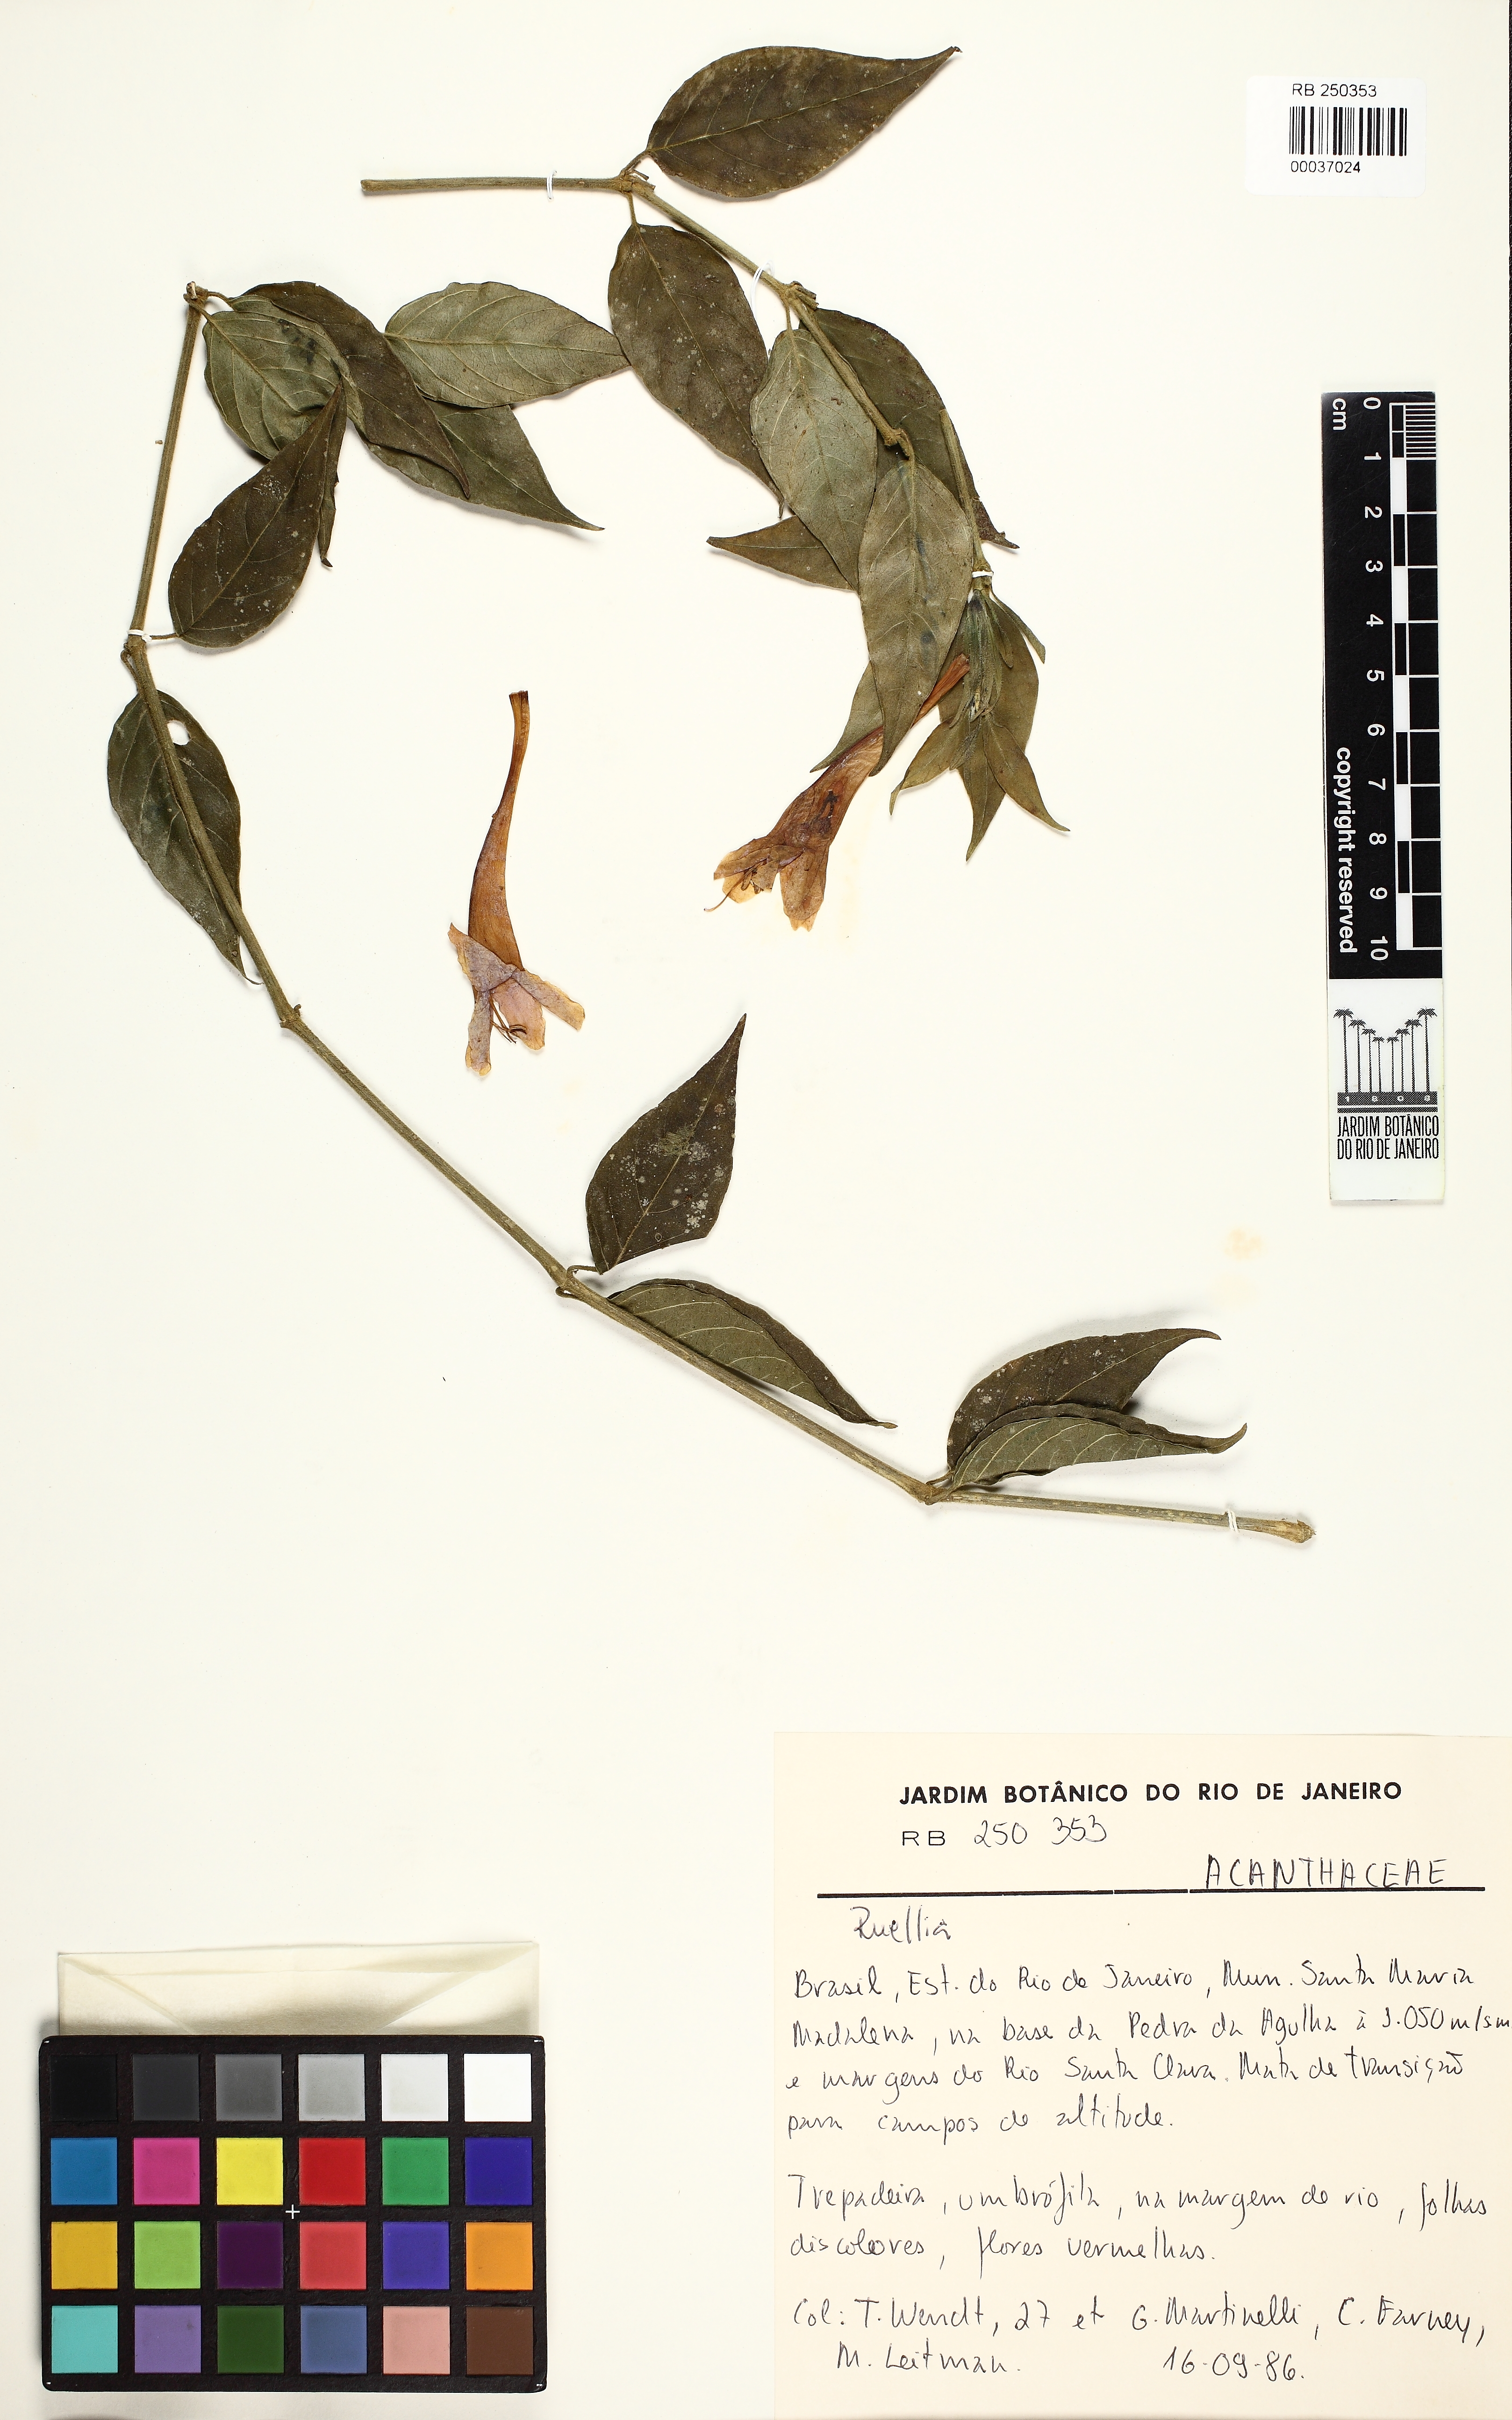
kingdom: Plantae
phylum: Tracheophyta
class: Magnoliopsida
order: Lamiales
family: Acanthaceae
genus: Ruellia
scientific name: Ruellia
